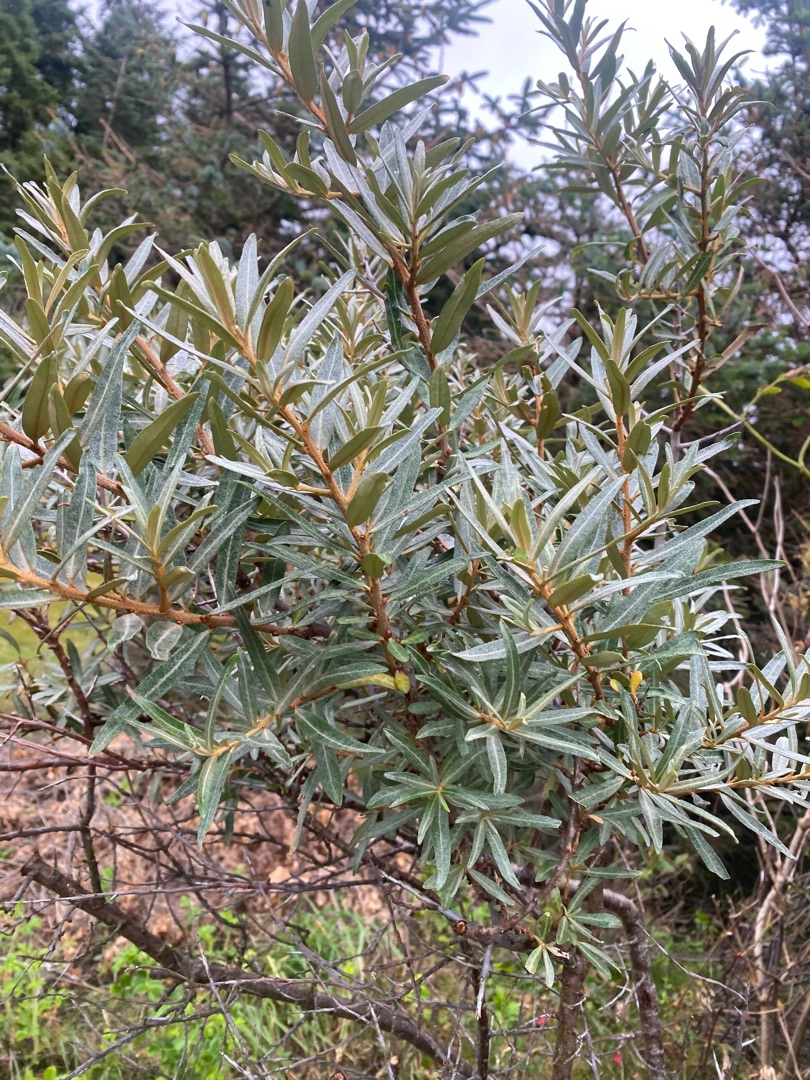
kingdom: Plantae
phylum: Tracheophyta
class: Magnoliopsida
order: Rosales
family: Elaeagnaceae
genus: Hippophae
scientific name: Hippophae rhamnoides
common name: Havtorn
